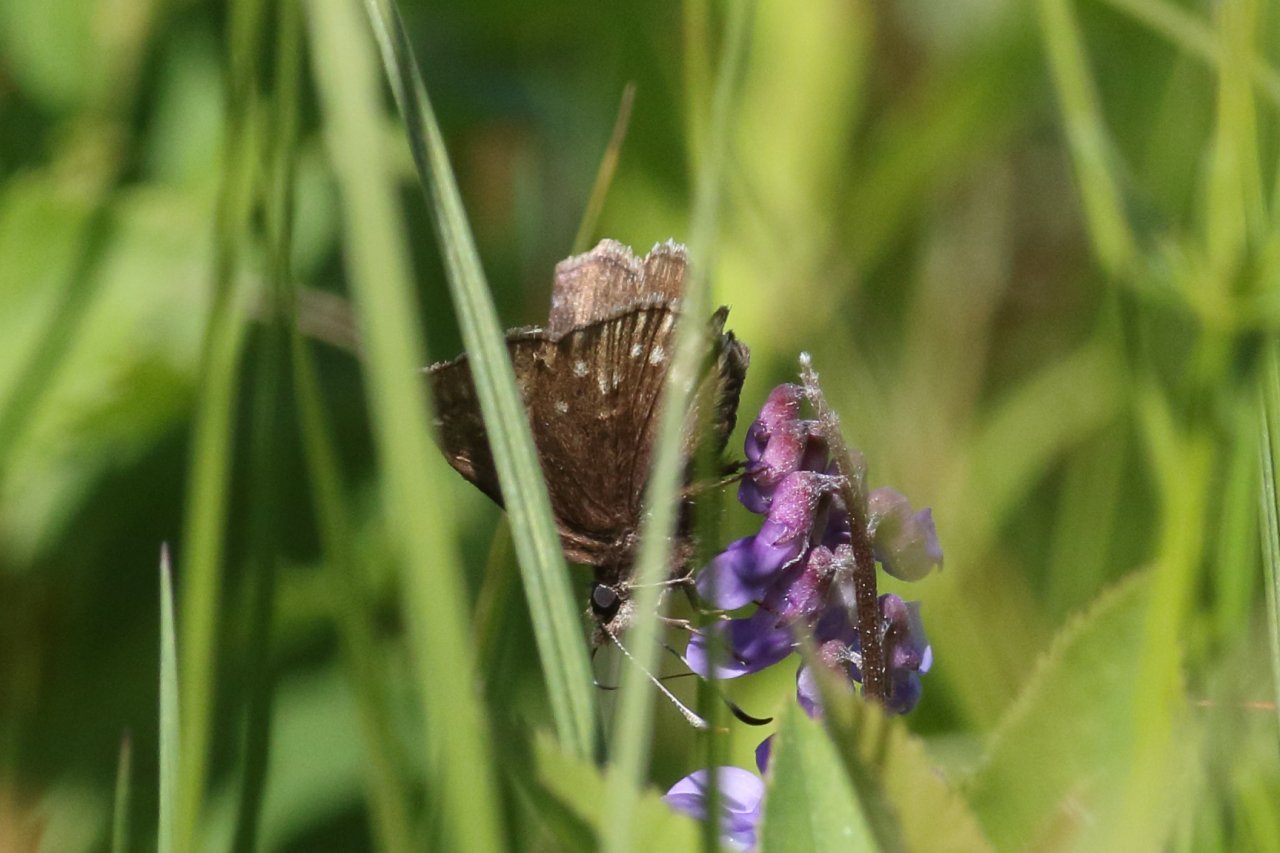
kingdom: Animalia
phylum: Arthropoda
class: Insecta
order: Lepidoptera
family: Hesperiidae
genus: Erynnis
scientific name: Erynnis icelus
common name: Dreamy Duskywing
